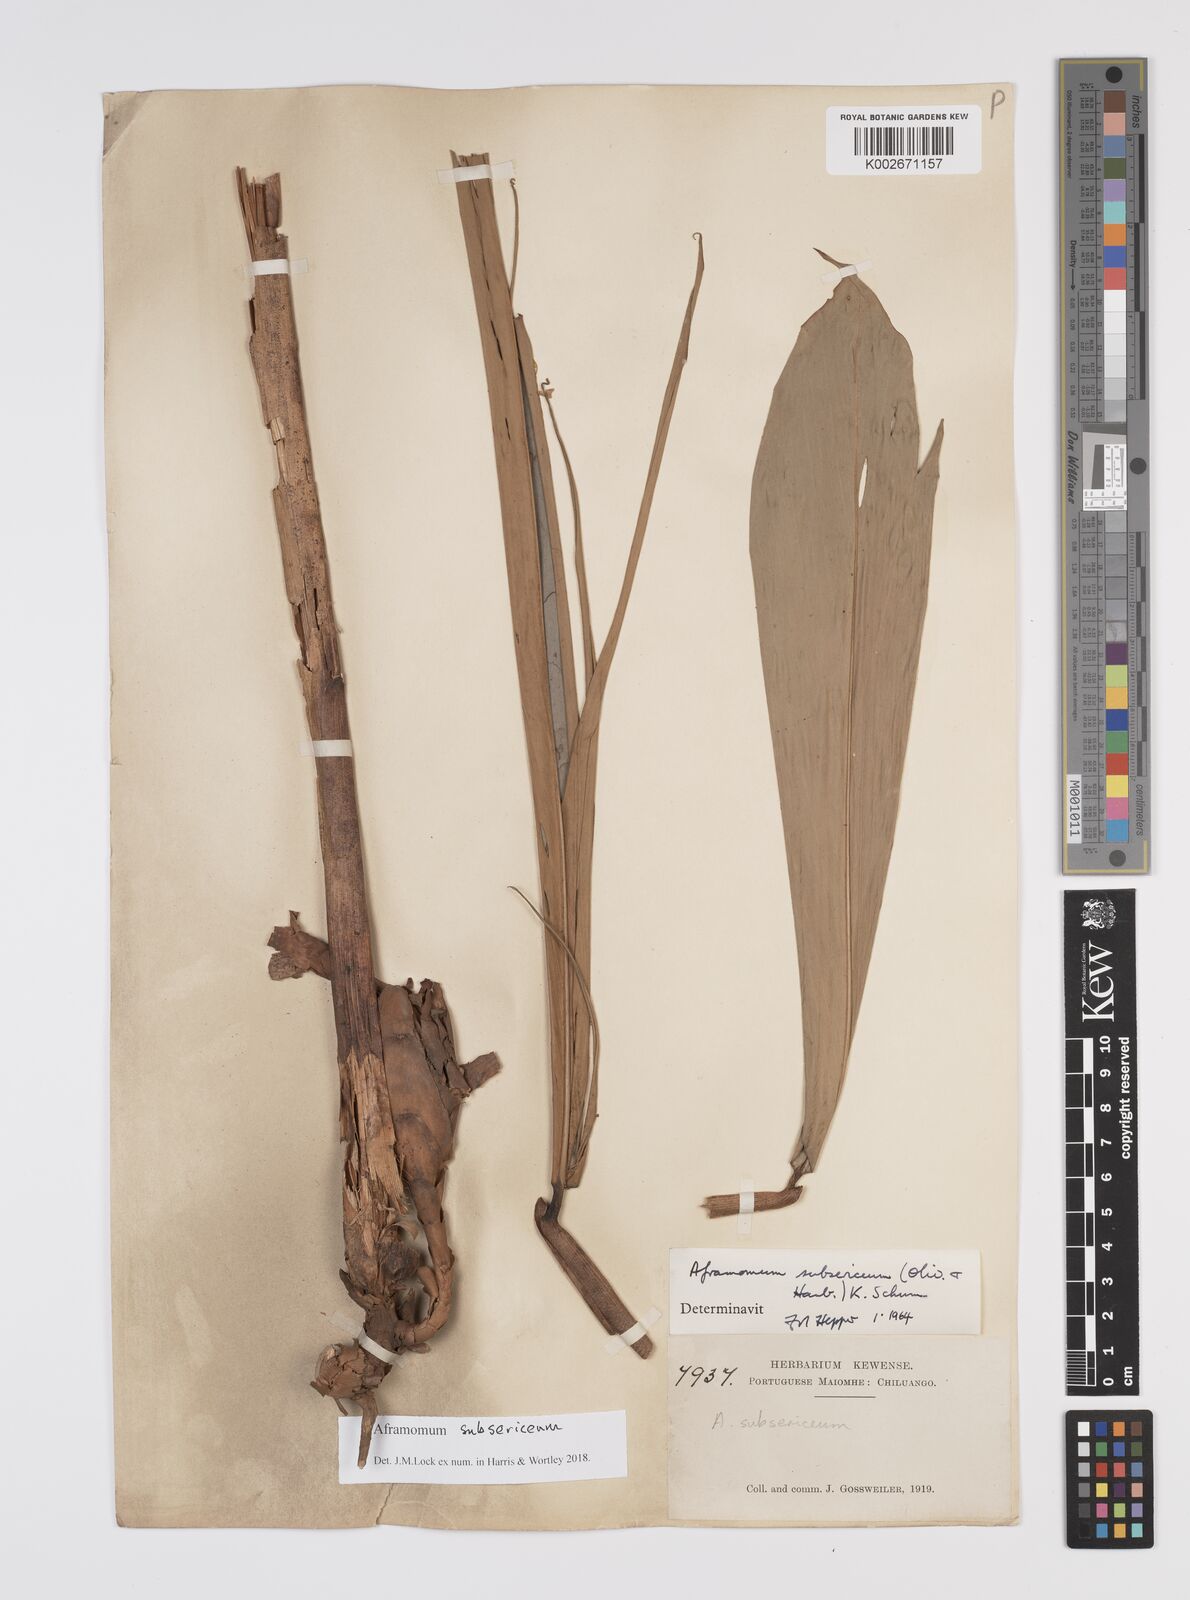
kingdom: Plantae
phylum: Tracheophyta
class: Liliopsida
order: Zingiberales
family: Zingiberaceae
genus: Aframomum
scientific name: Aframomum subsericeum
